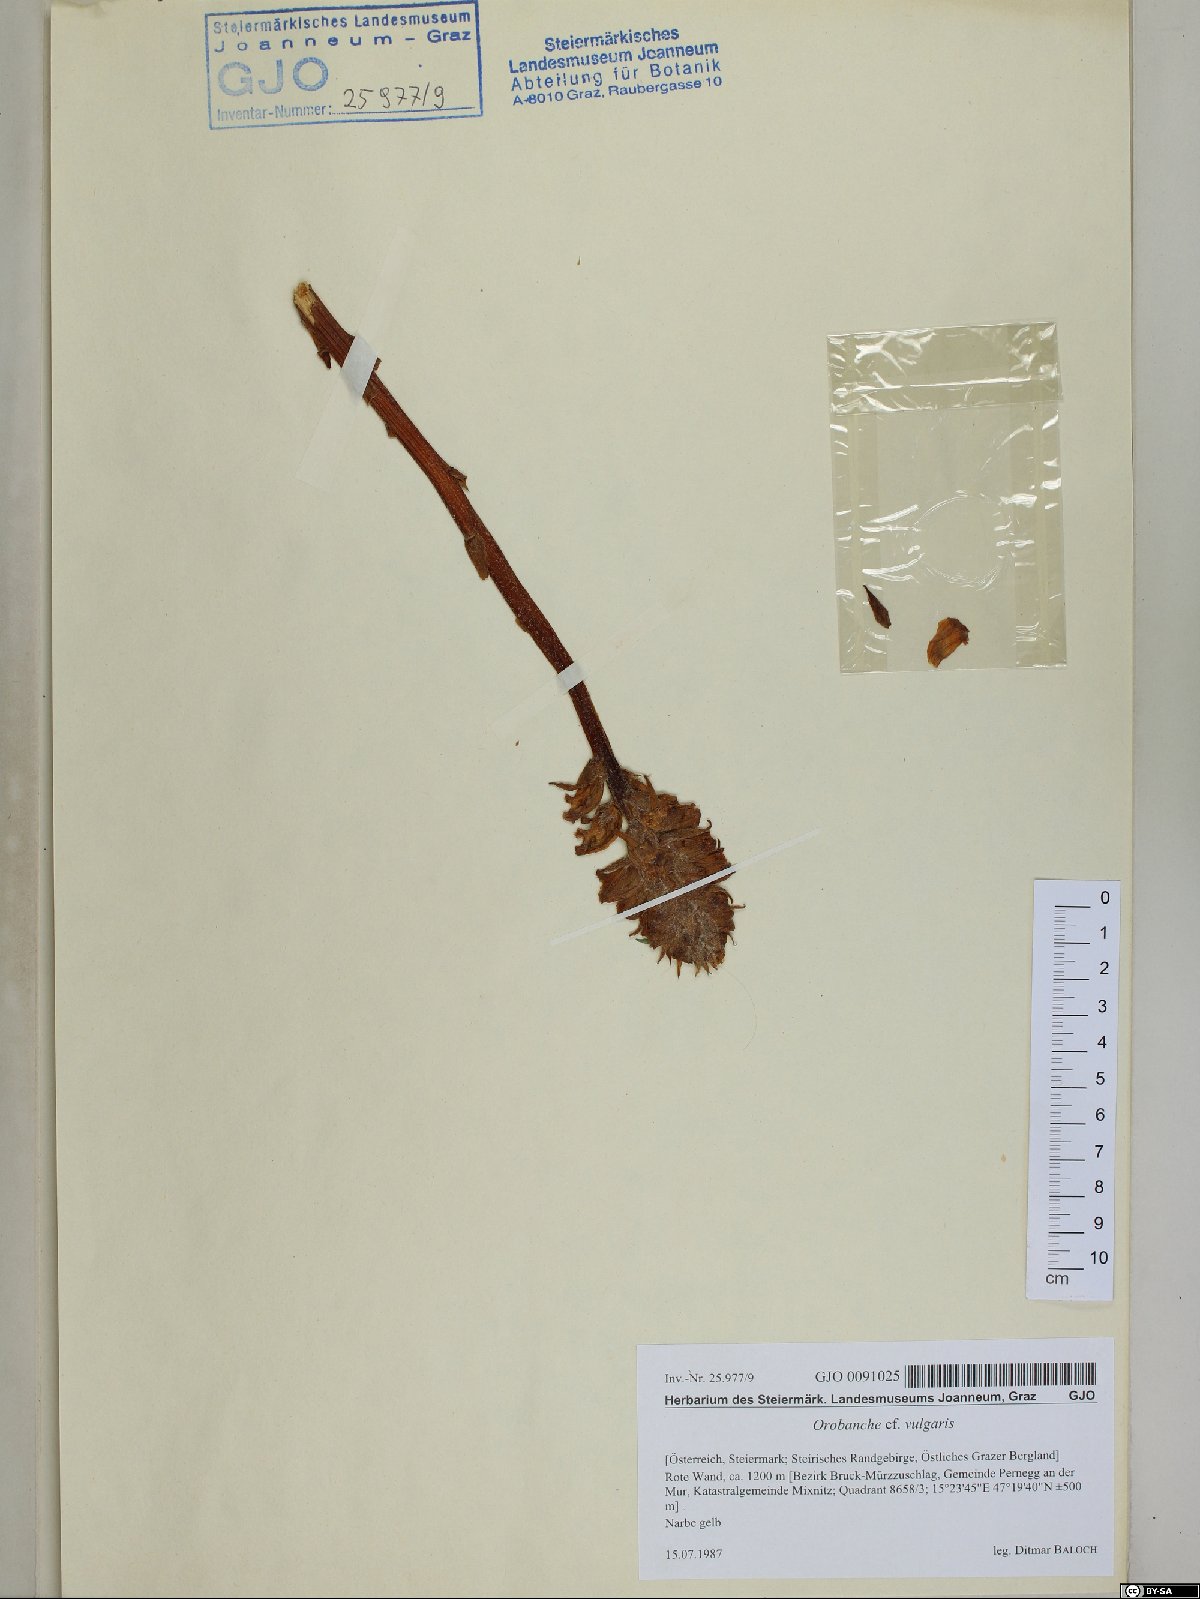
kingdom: Plantae
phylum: Tracheophyta
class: Magnoliopsida
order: Lamiales
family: Orobanchaceae
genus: Orobanche
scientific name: Orobanche caryophyllacea
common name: Bedstraw broomrape
